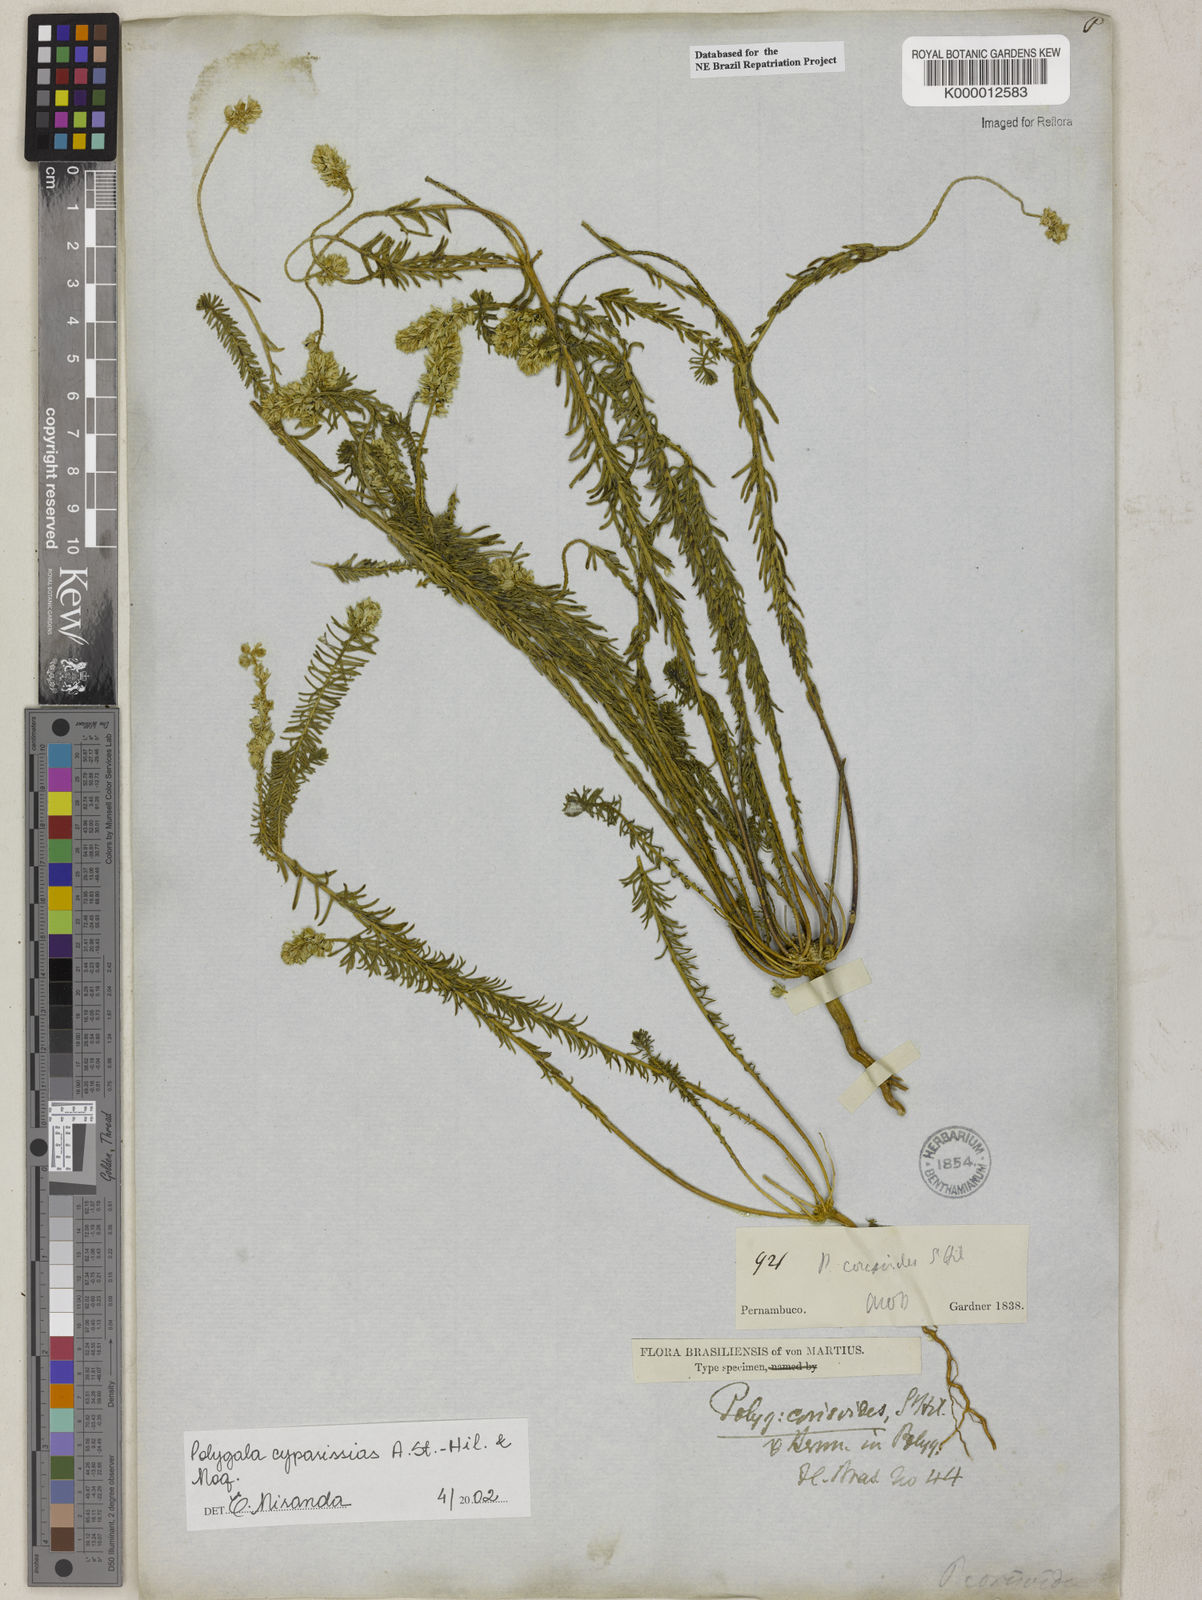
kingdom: Plantae
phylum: Tracheophyta
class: Magnoliopsida
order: Fabales
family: Polygalaceae
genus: Polygala
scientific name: Polygala cyparissias
